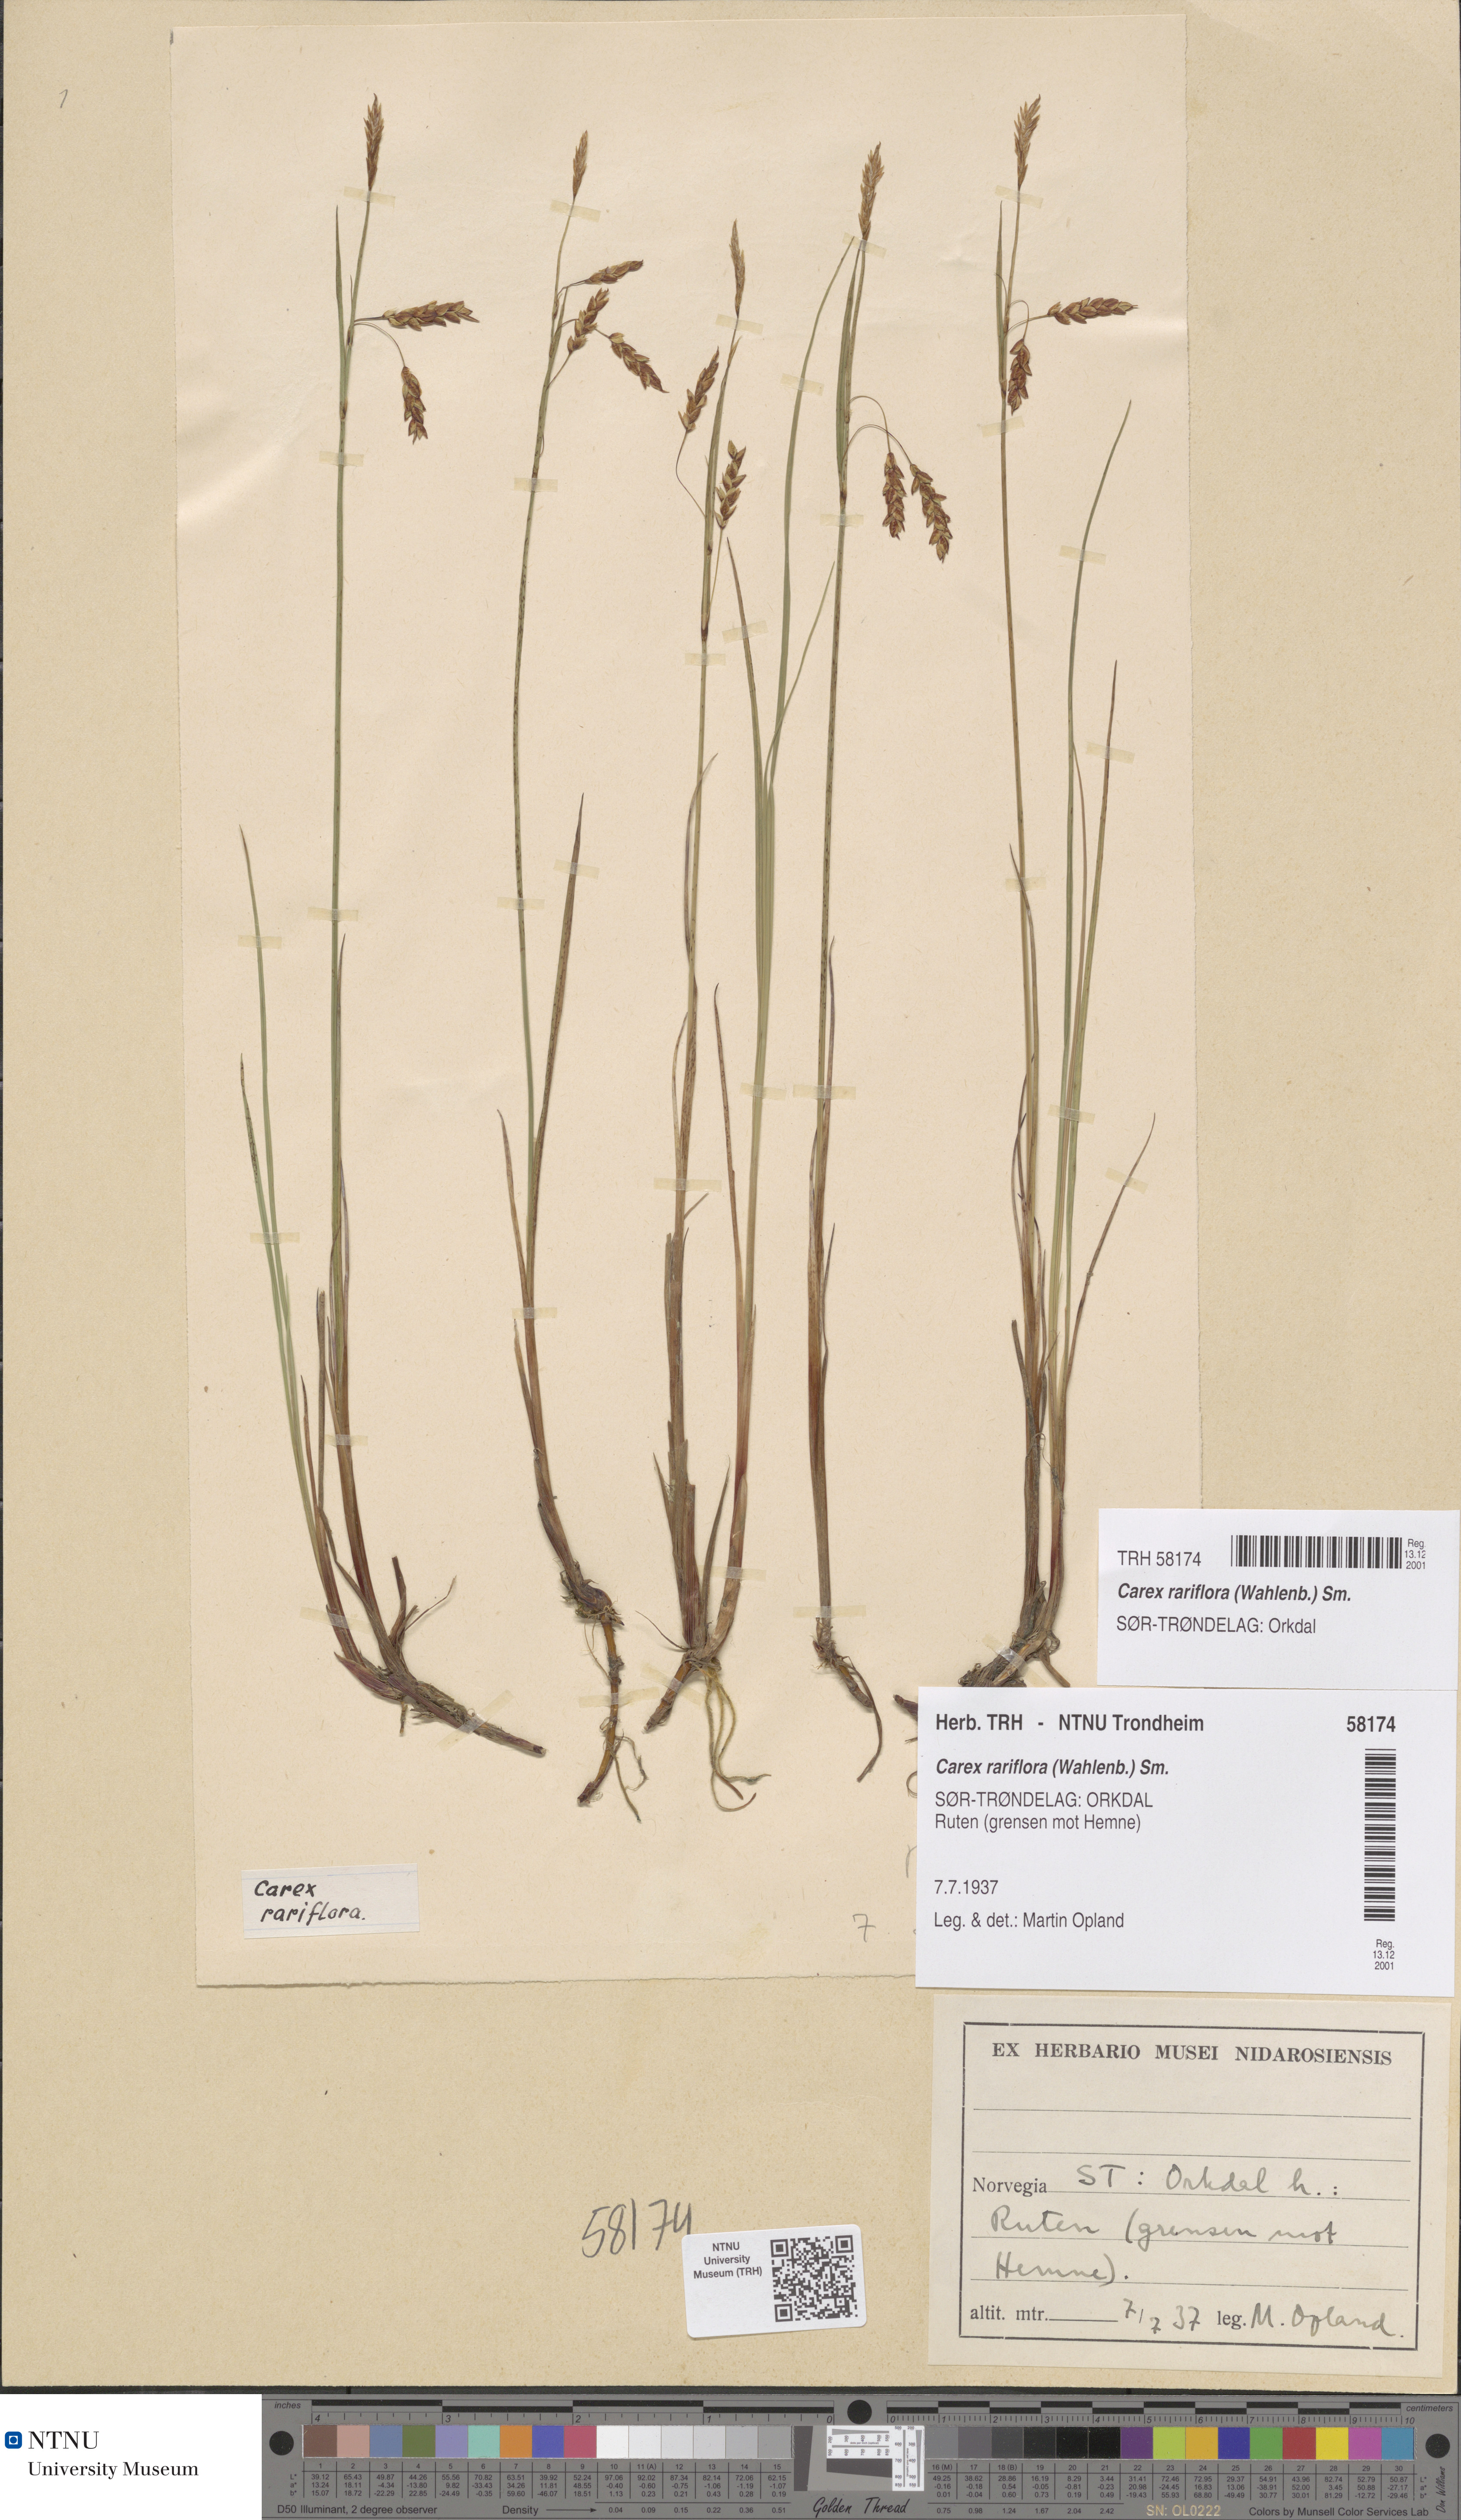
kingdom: Plantae
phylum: Tracheophyta
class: Liliopsida
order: Poales
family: Cyperaceae
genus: Carex
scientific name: Carex rariflora
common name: Loose-flowered alpine sedge
